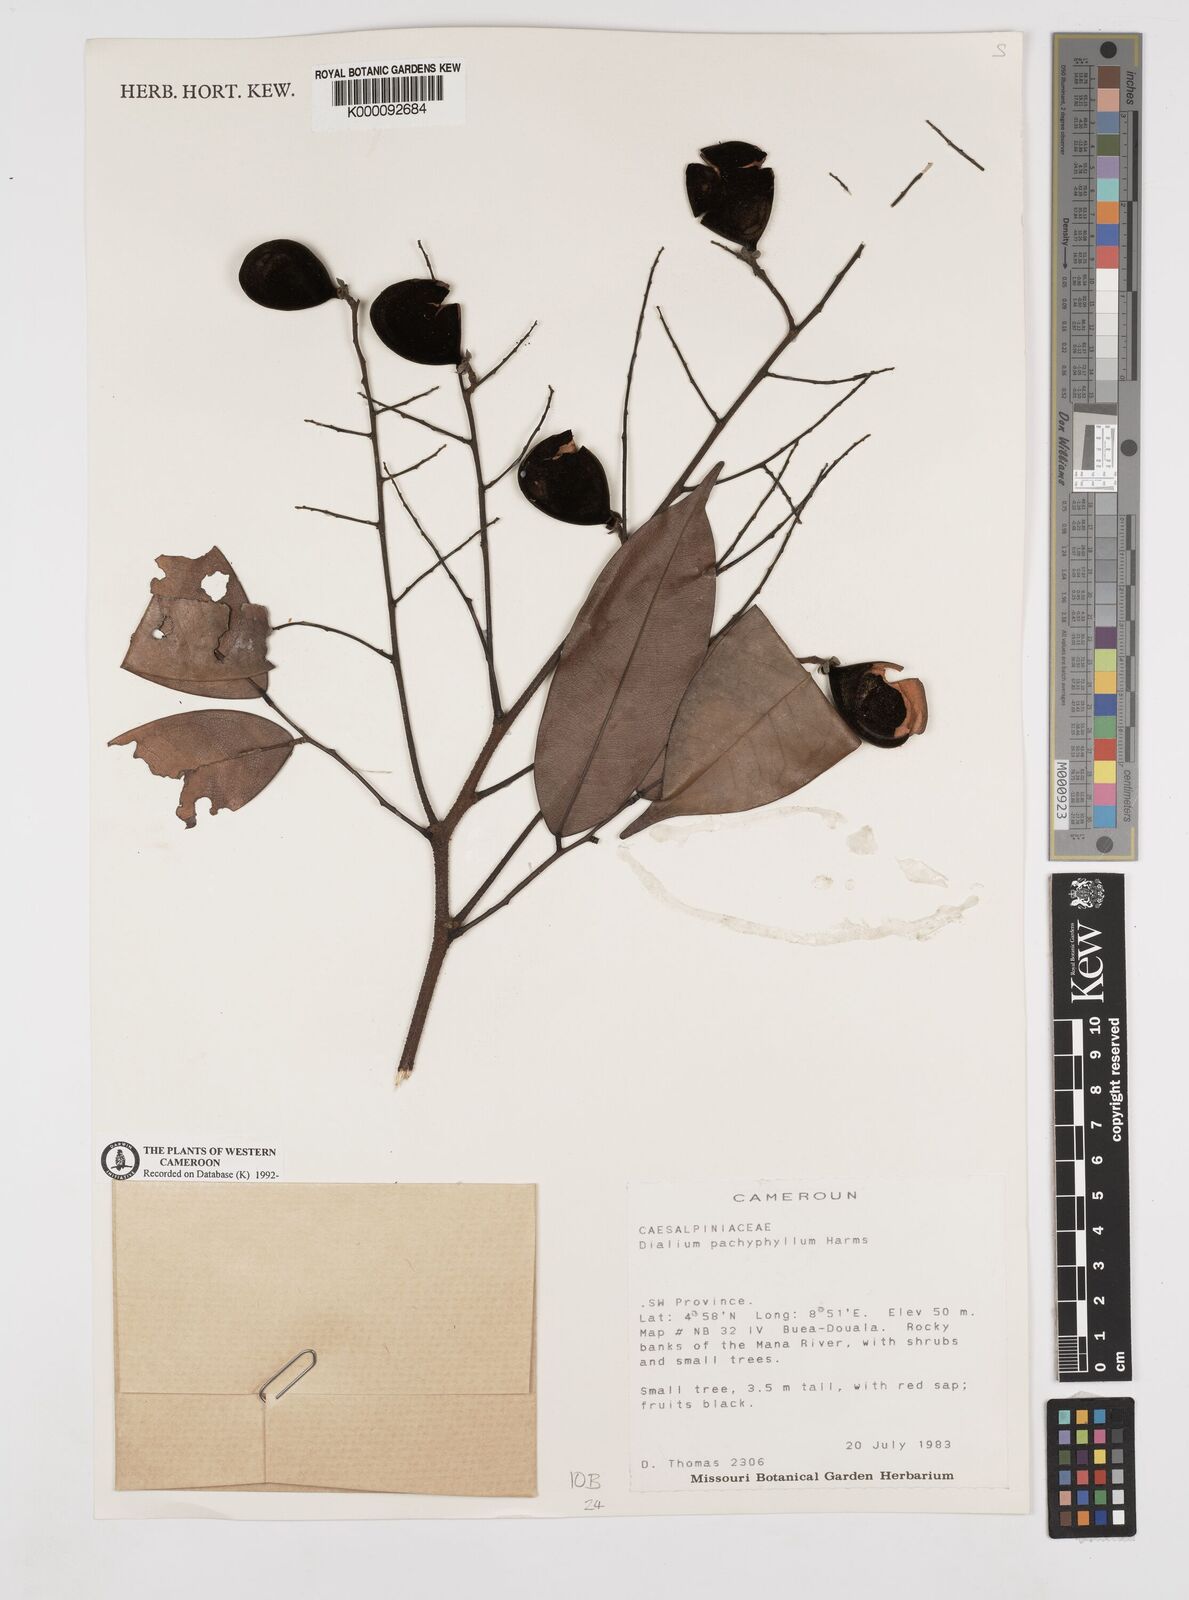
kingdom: Plantae
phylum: Tracheophyta
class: Magnoliopsida
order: Fabales
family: Fabaceae
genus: Dialium
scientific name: Dialium pachyphyllum
